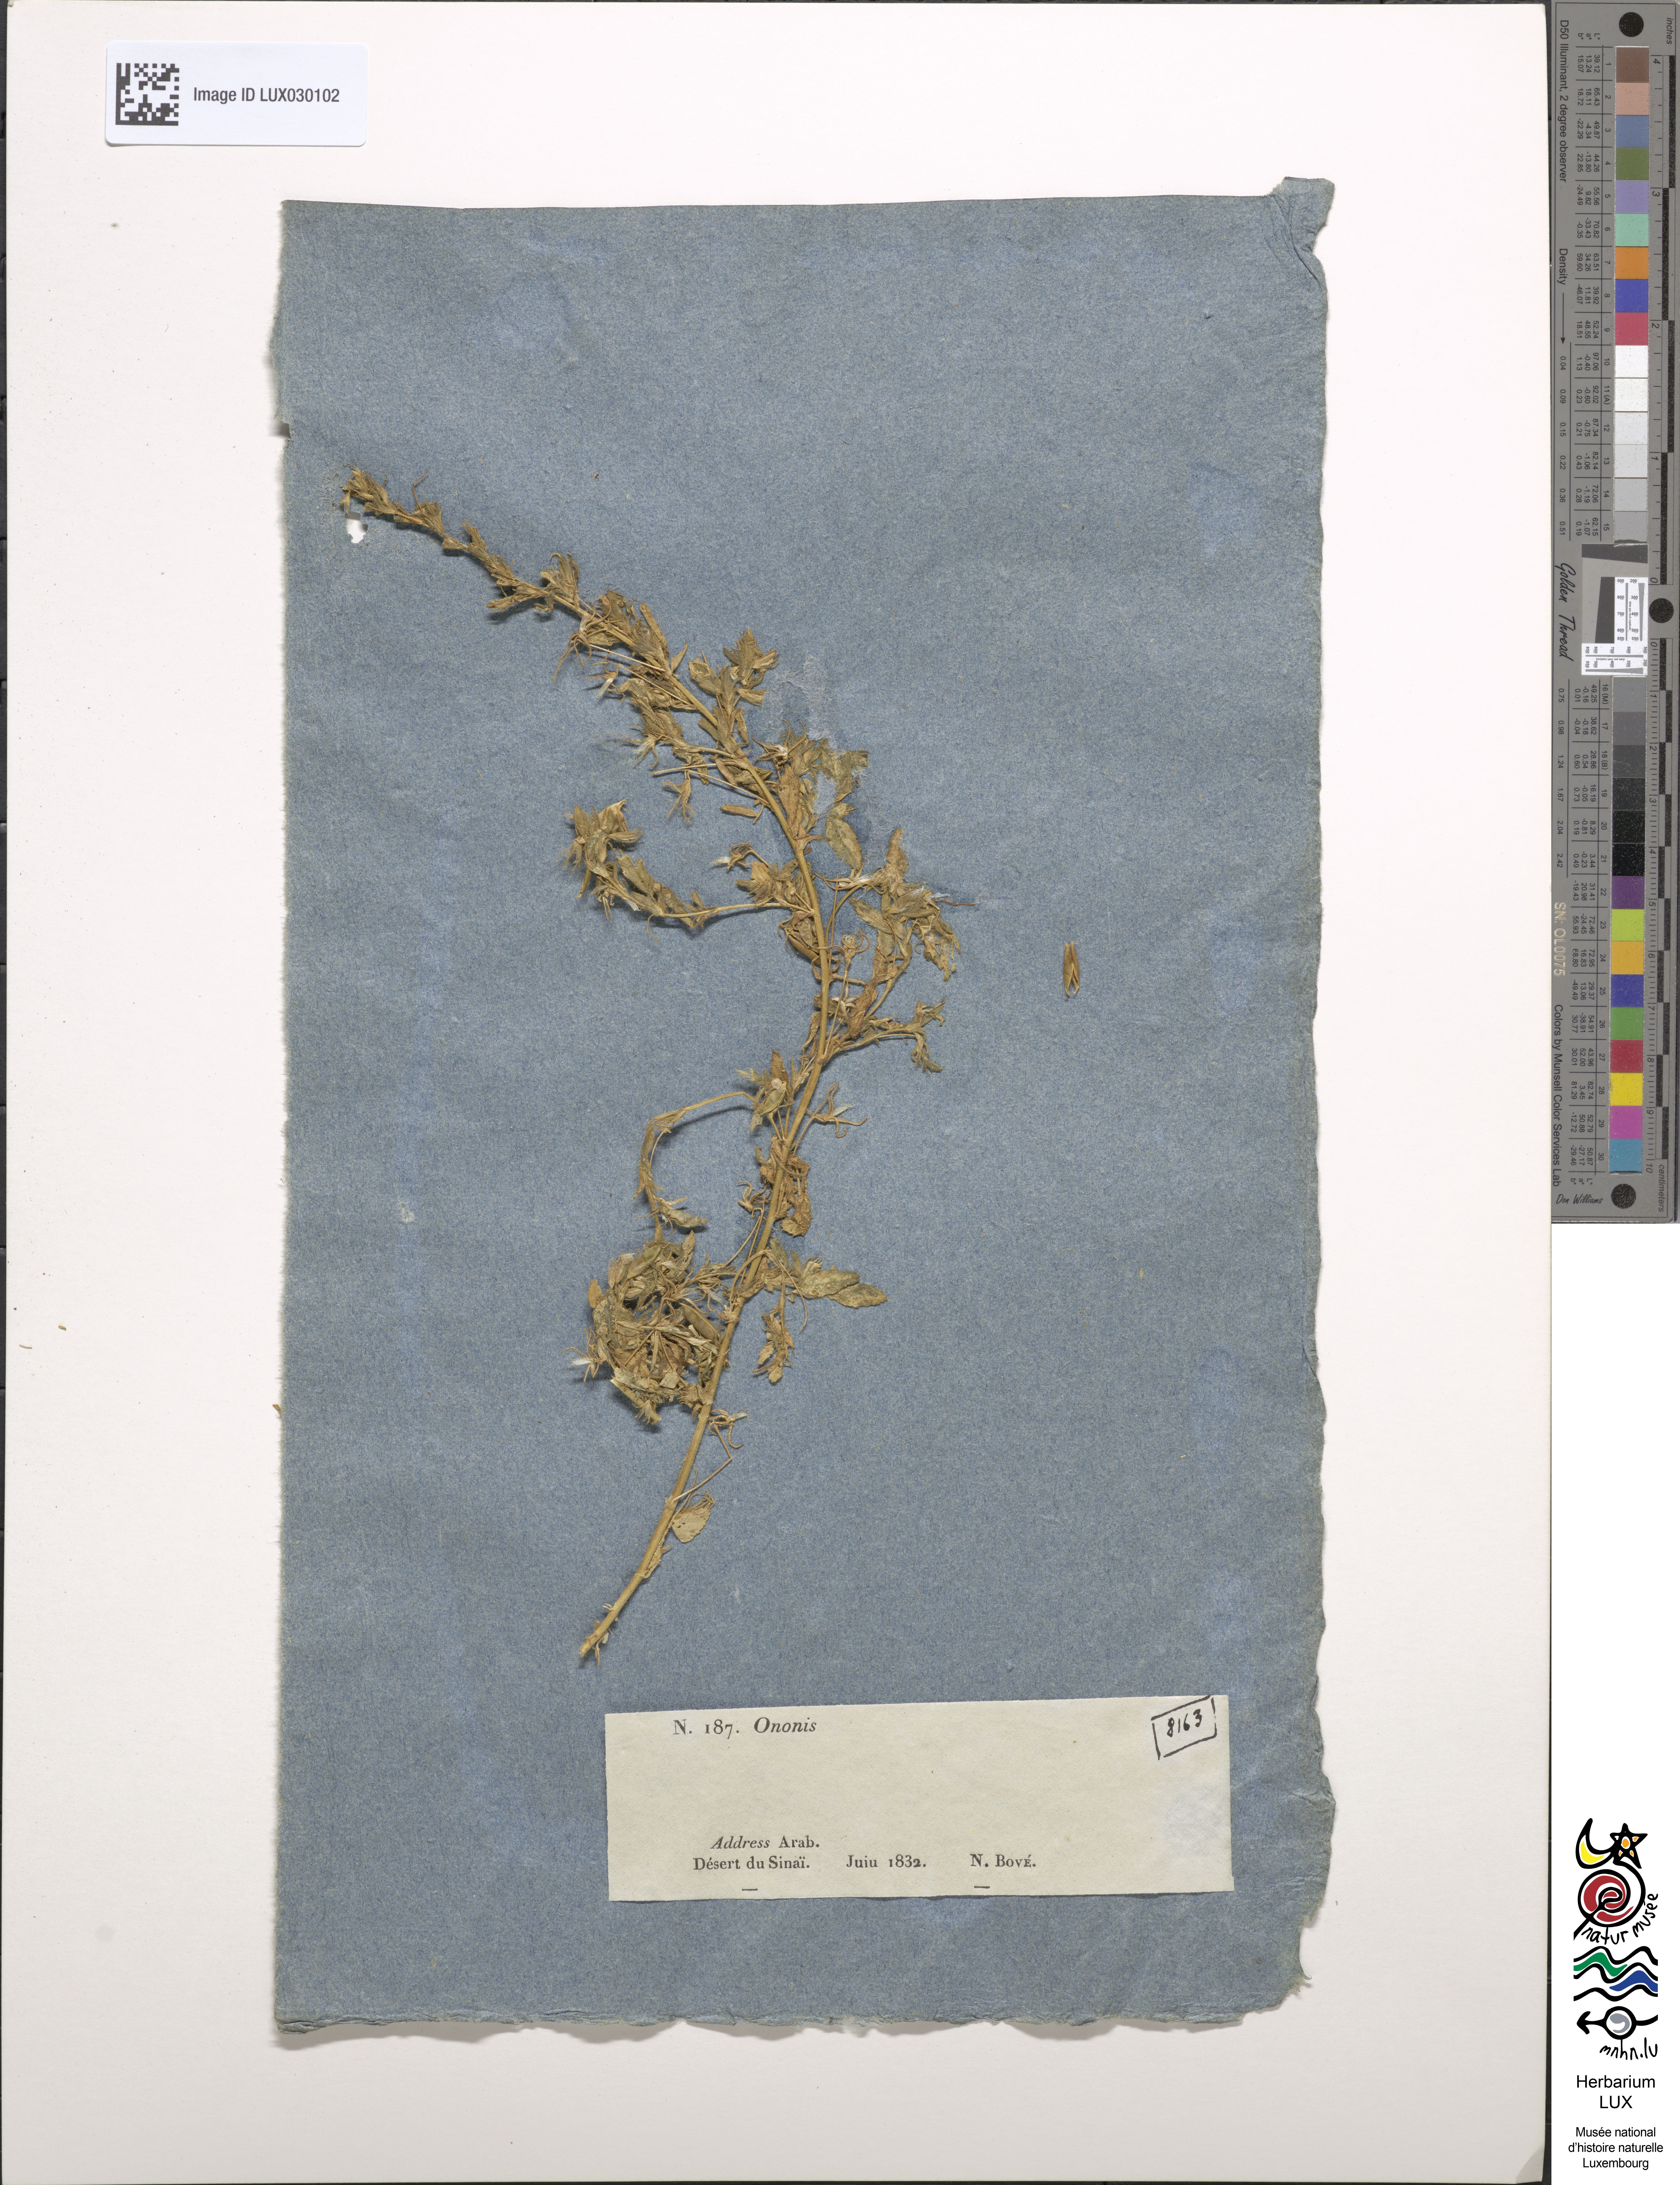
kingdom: Plantae
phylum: Tracheophyta
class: Magnoliopsida
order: Fabales
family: Fabaceae
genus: Ononis
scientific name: Ononis
